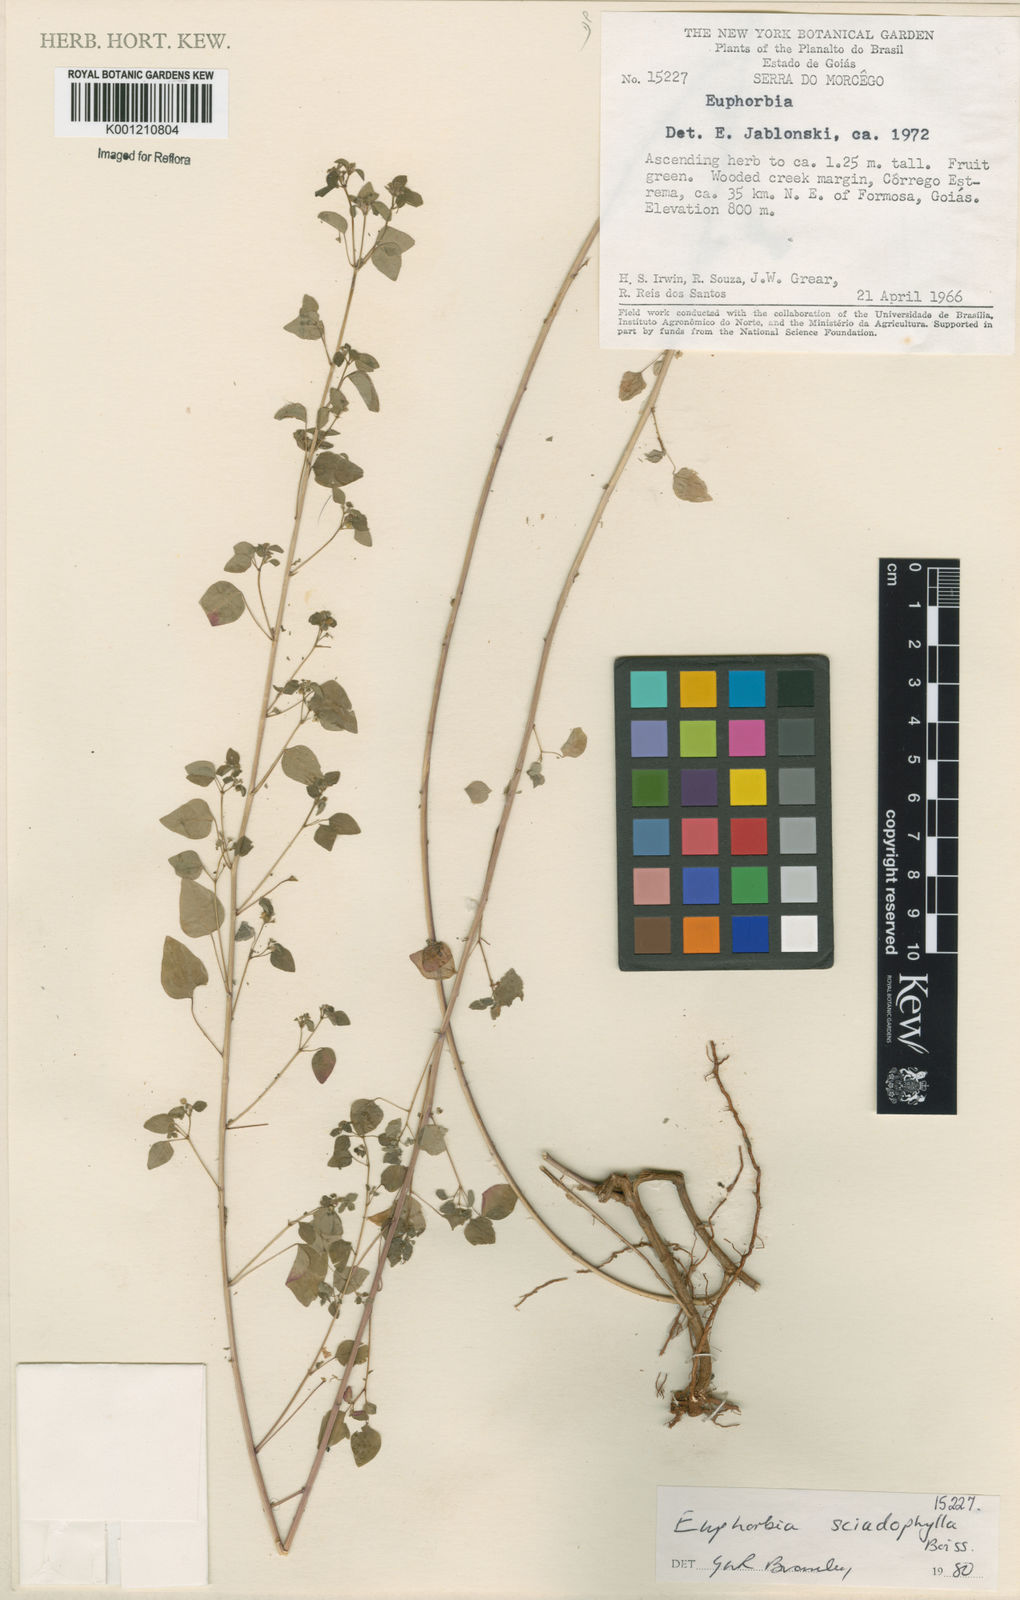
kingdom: Plantae
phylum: Tracheophyta
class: Magnoliopsida
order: Malpighiales
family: Euphorbiaceae
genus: Euphorbia
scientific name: Euphorbia sciadophila
